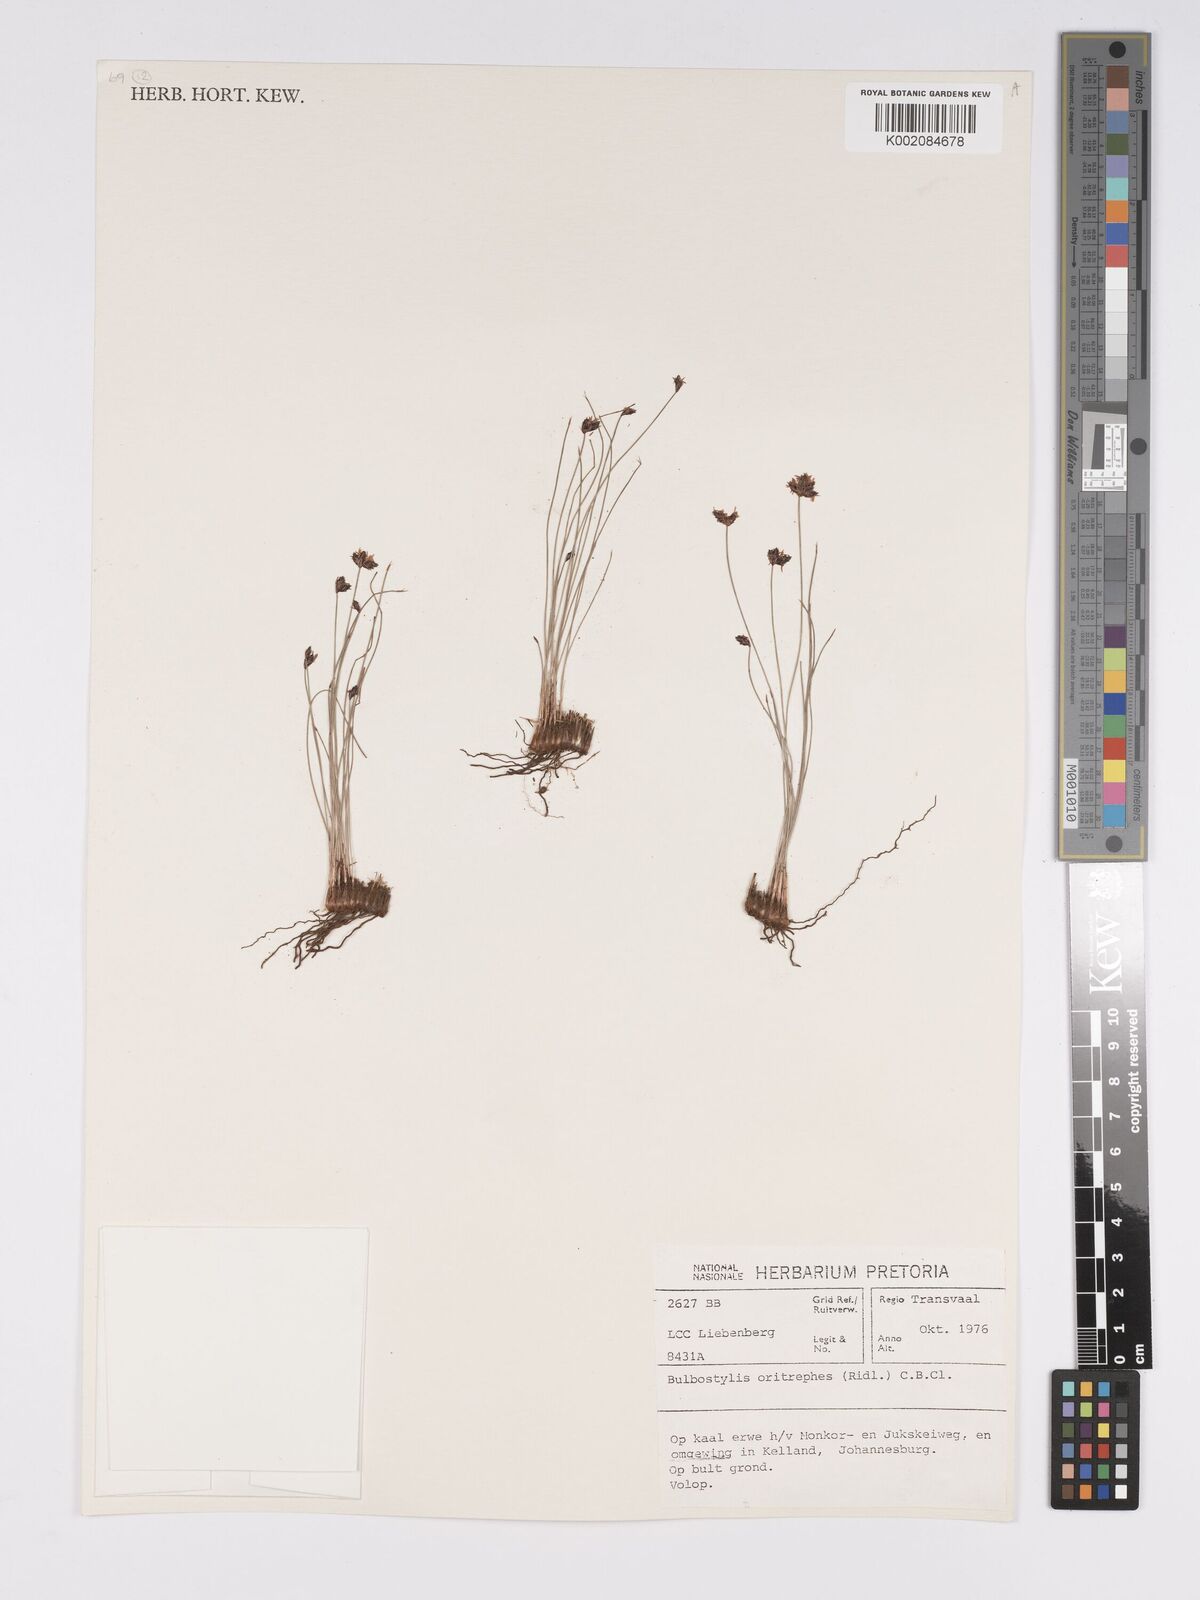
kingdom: Plantae
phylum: Tracheophyta
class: Liliopsida
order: Poales
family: Cyperaceae
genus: Bulbostylis
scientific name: Bulbostylis oritrephes
